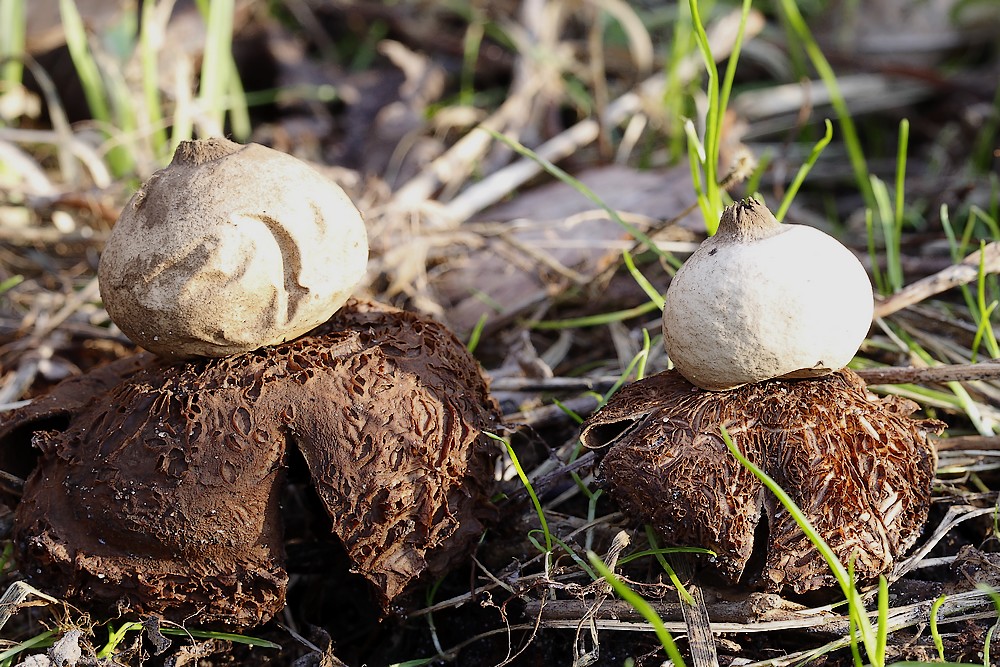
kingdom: Fungi
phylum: Basidiomycota
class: Agaricomycetes
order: Geastrales
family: Geastraceae
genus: Geastrum
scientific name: Geastrum michelianum
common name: kødet stjernebold
